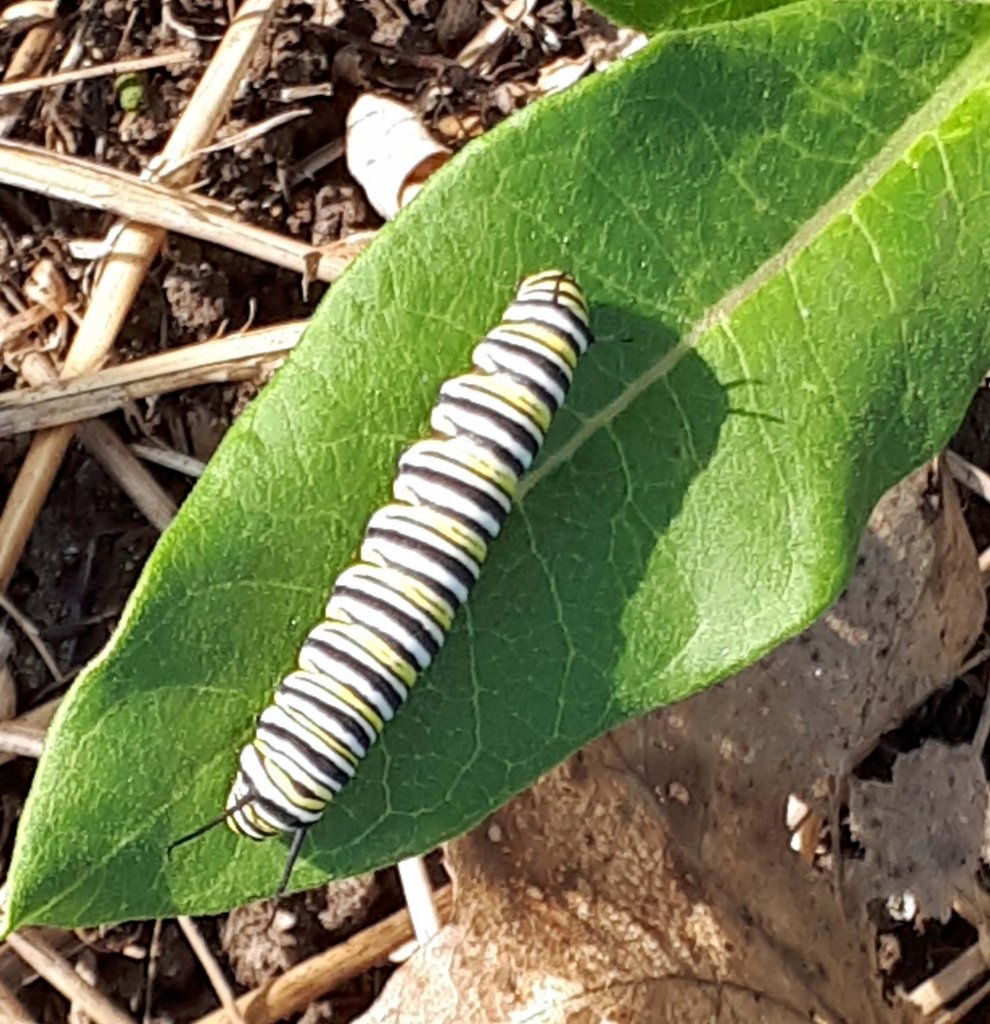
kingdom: Animalia
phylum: Arthropoda
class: Insecta
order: Lepidoptera
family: Nymphalidae
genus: Danaus
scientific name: Danaus plexippus
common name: Monarch
